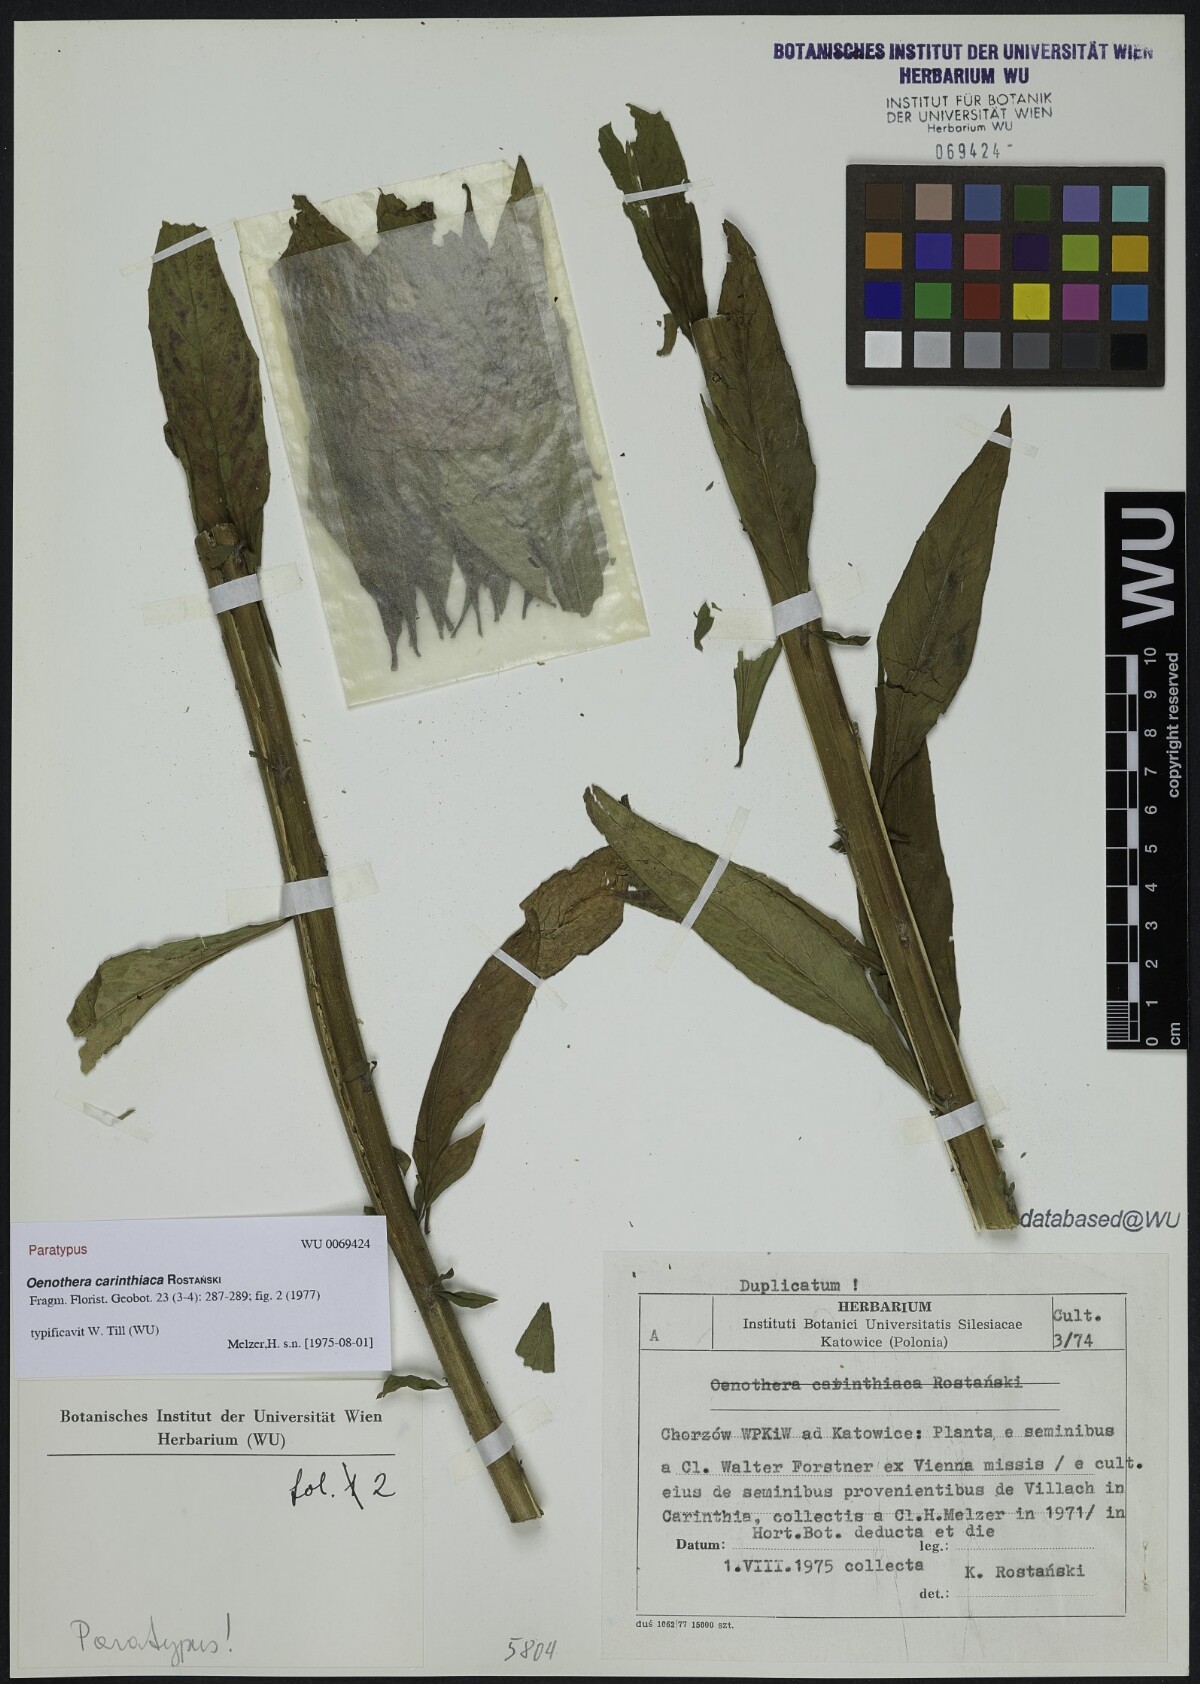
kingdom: Plantae
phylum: Tracheophyta
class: Magnoliopsida
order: Myrtales
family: Onagraceae
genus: Oenothera
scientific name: Oenothera carinthiaca
